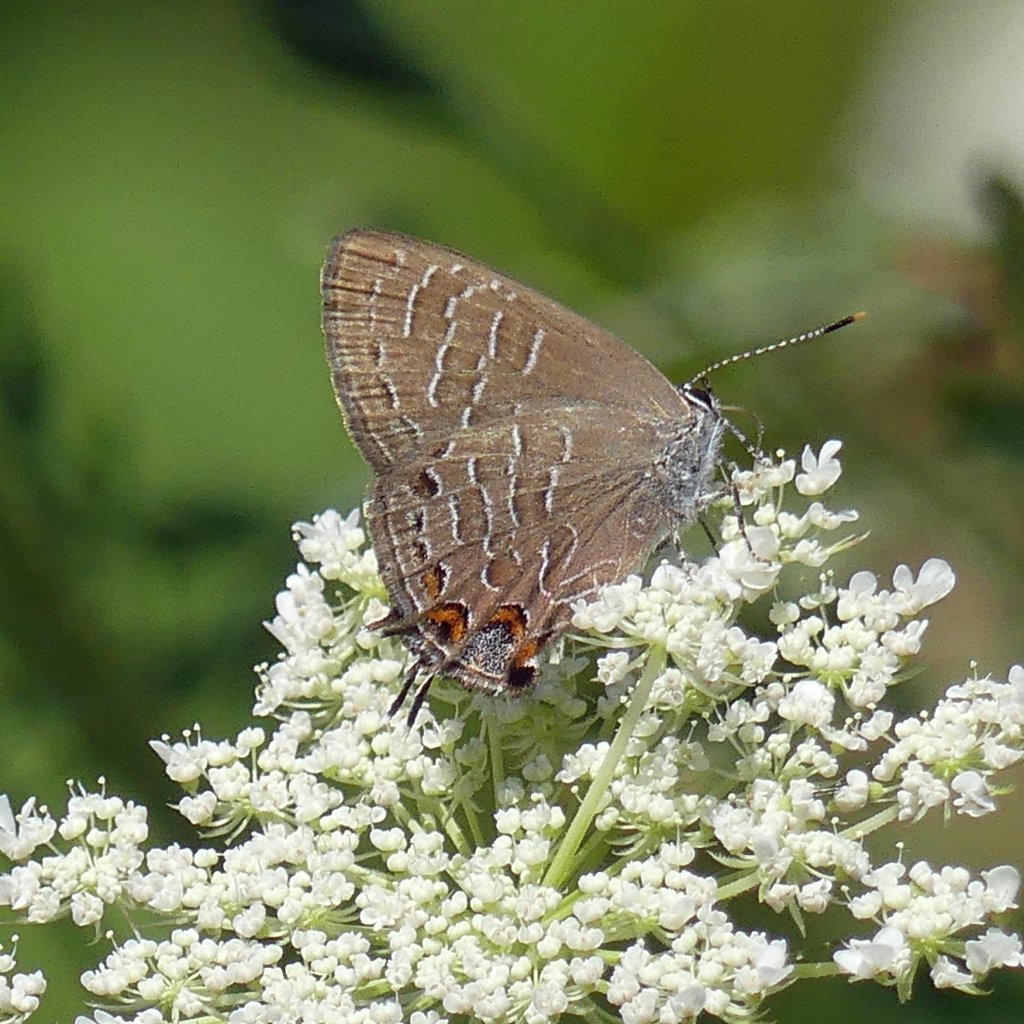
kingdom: Animalia
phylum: Arthropoda
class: Insecta
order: Lepidoptera
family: Lycaenidae
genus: Satyrium
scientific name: Satyrium liparops
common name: Striped Hairstreak
